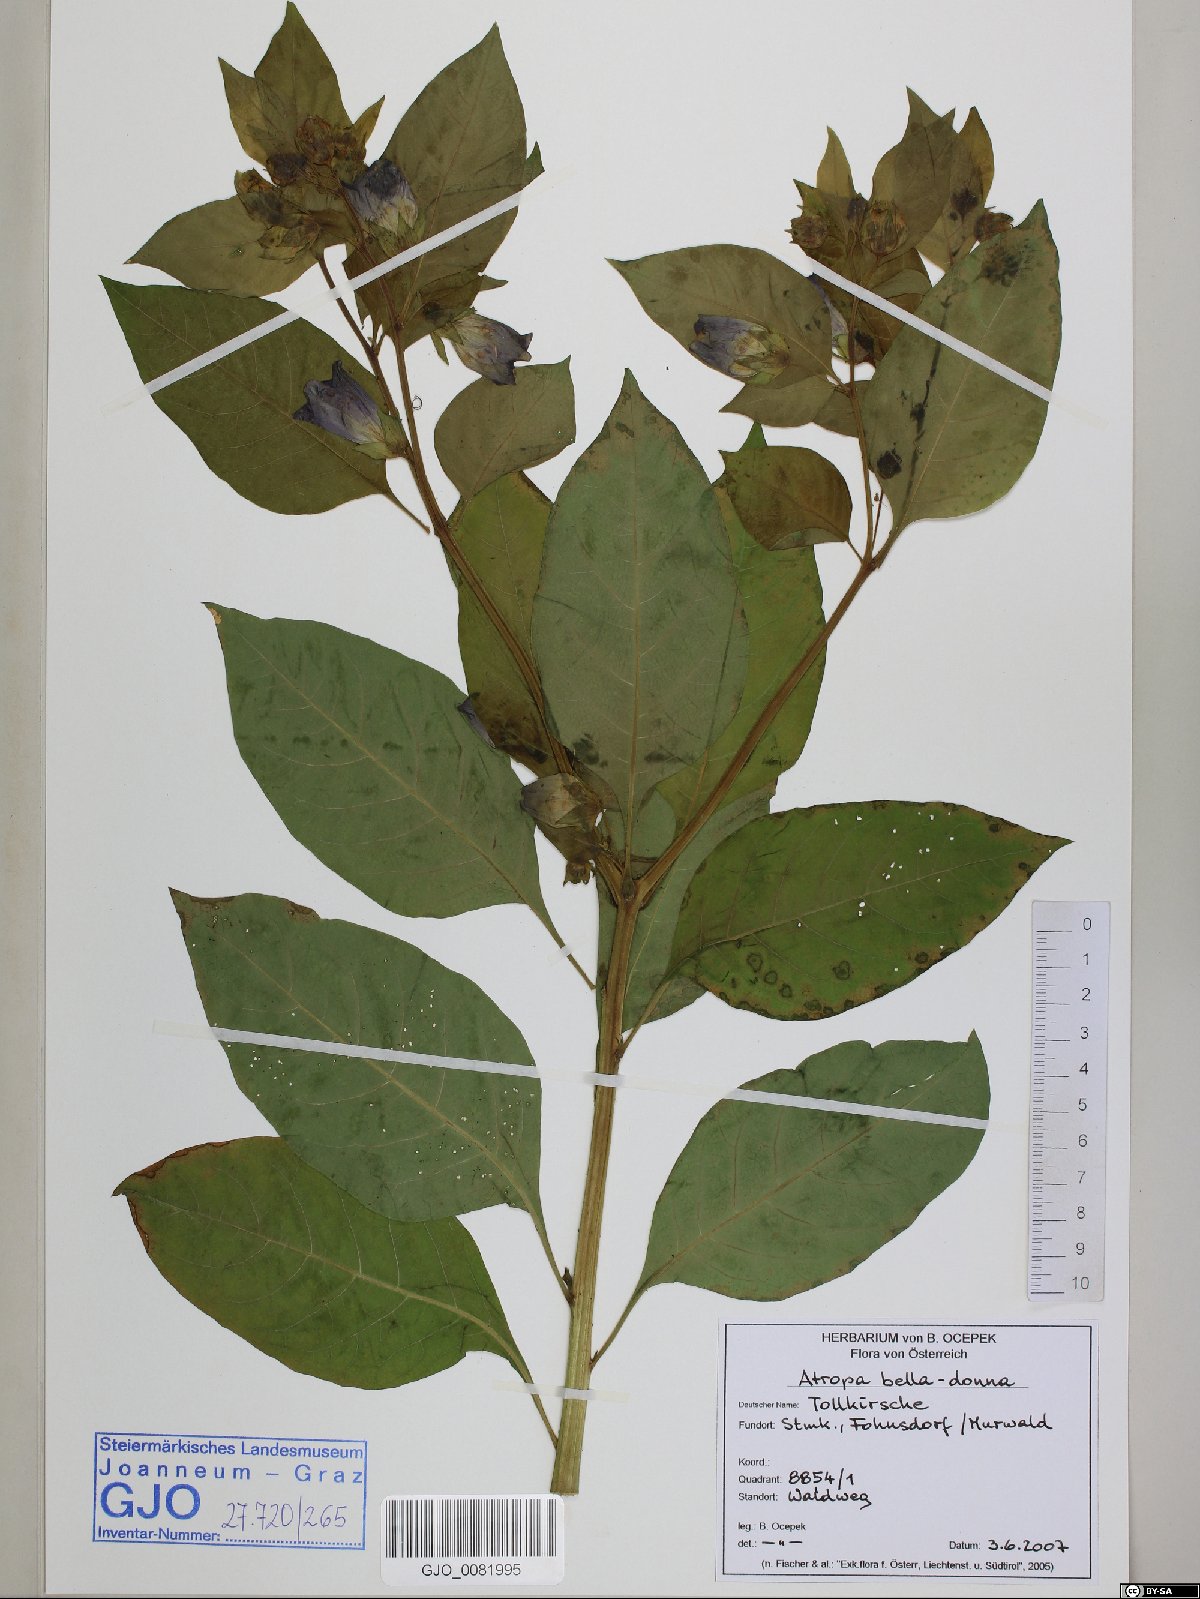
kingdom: Plantae
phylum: Tracheophyta
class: Magnoliopsida
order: Solanales
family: Solanaceae
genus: Atropa
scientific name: Atropa belladonna
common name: Deadly nightshade
